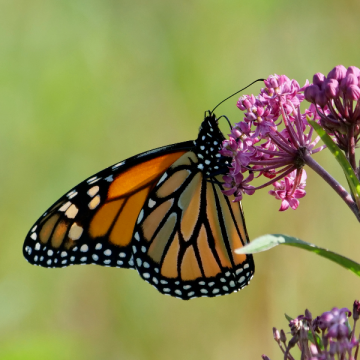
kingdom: Animalia
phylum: Arthropoda
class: Insecta
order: Lepidoptera
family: Nymphalidae
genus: Danaus
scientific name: Danaus plexippus
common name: Monarch
